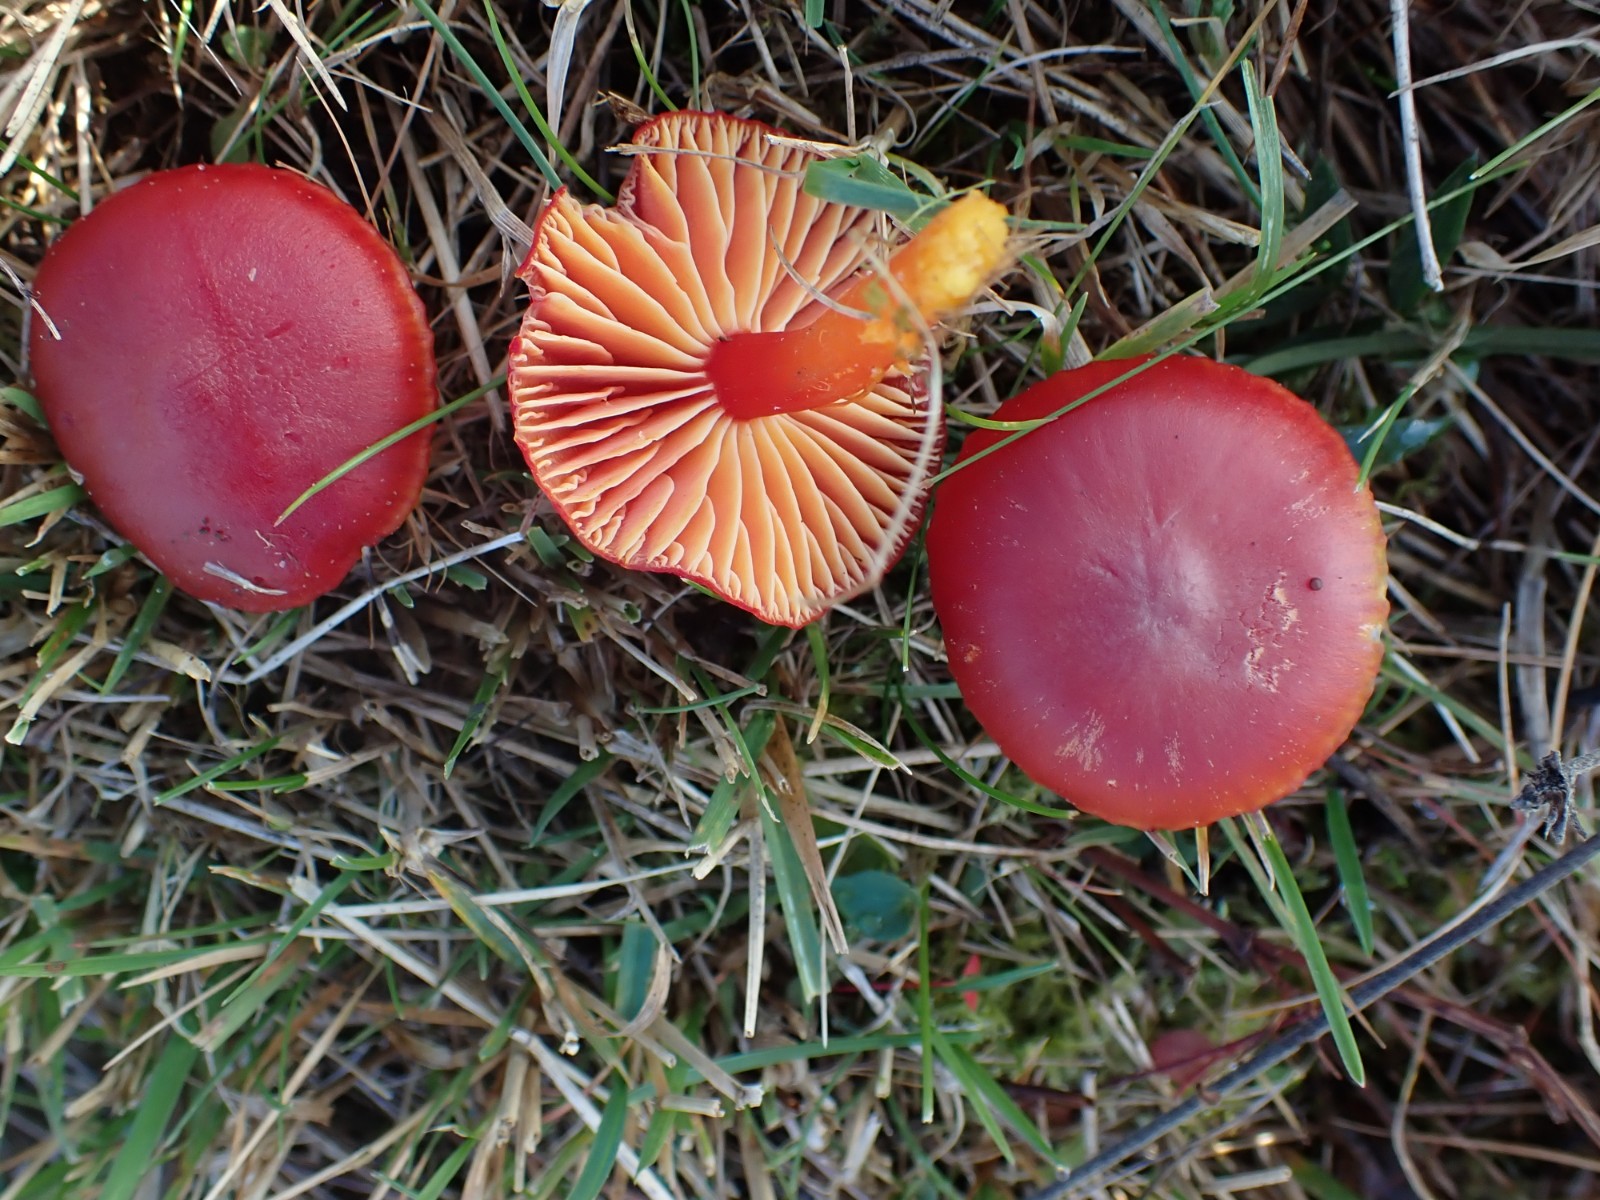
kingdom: Fungi
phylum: Basidiomycota
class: Agaricomycetes
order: Agaricales
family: Hygrophoraceae
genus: Hygrocybe
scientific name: Hygrocybe coccinea
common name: cinnober-vokshat
